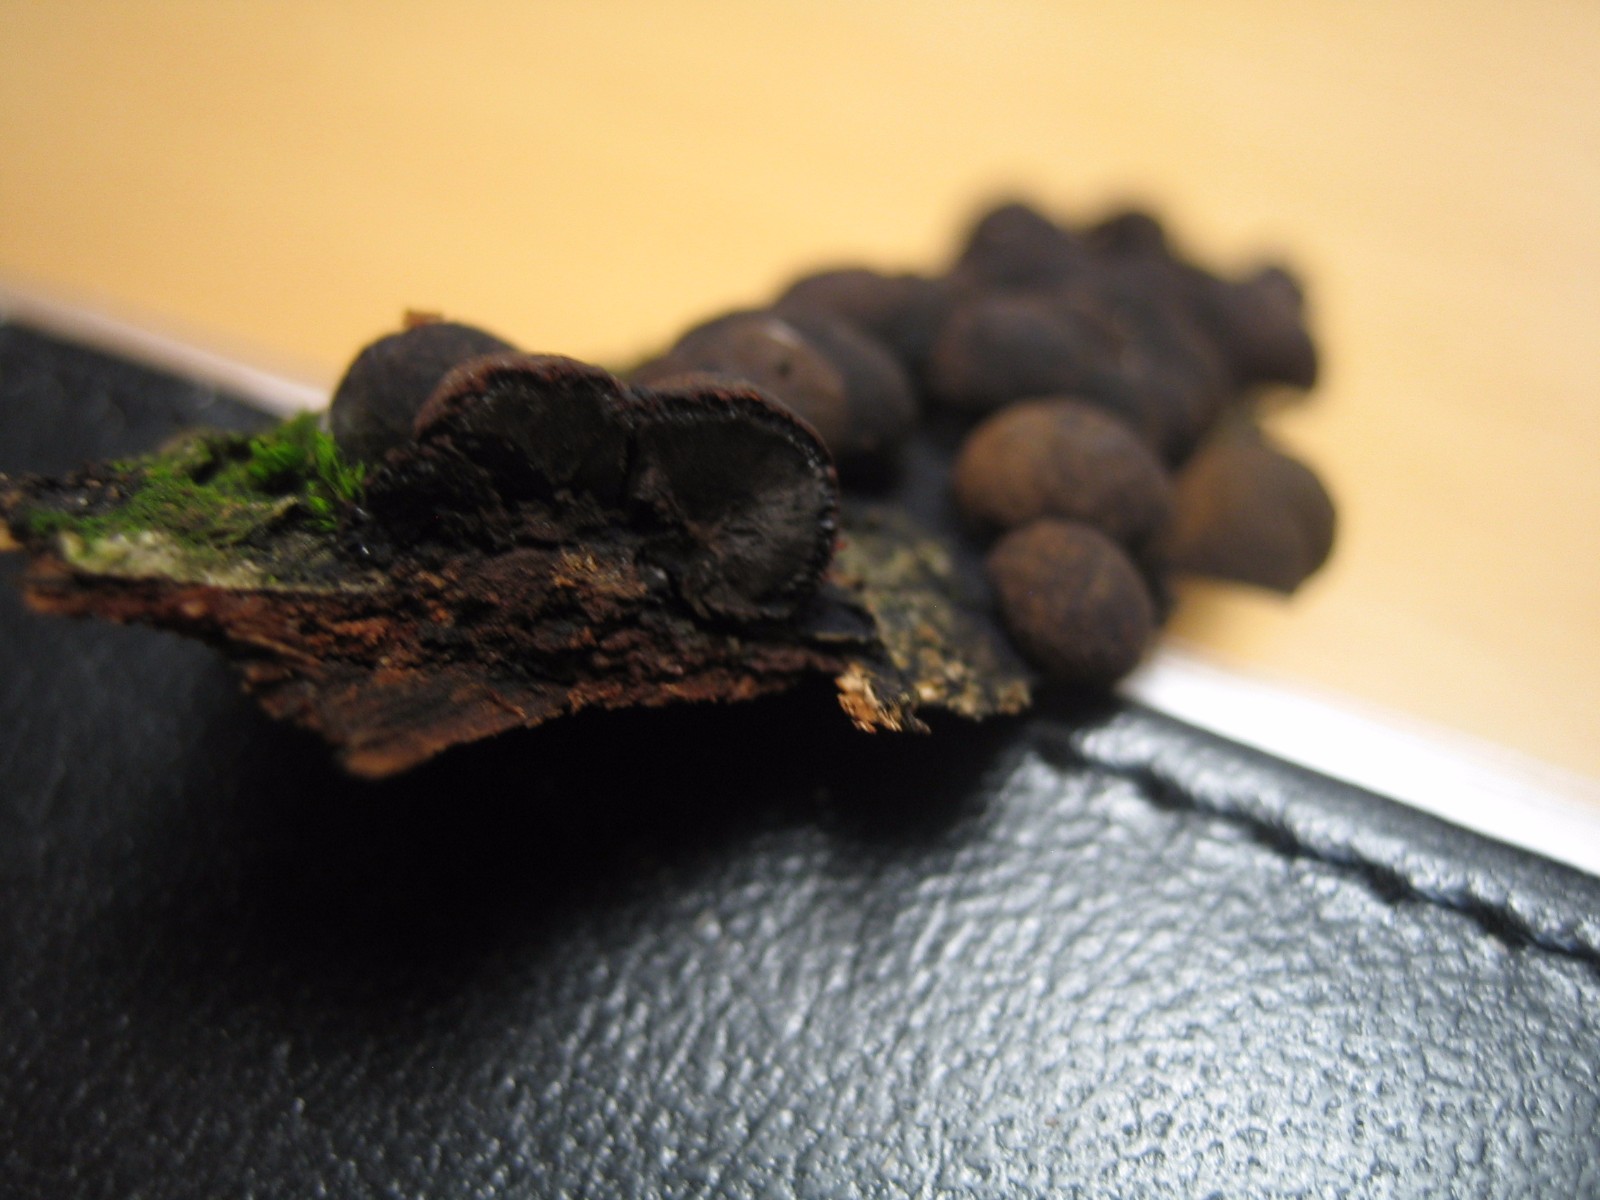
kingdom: Fungi
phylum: Ascomycota
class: Sordariomycetes
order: Xylariales
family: Hypoxylaceae
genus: Hypoxylon
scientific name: Hypoxylon howeanum
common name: halvkugleformet kulbær
